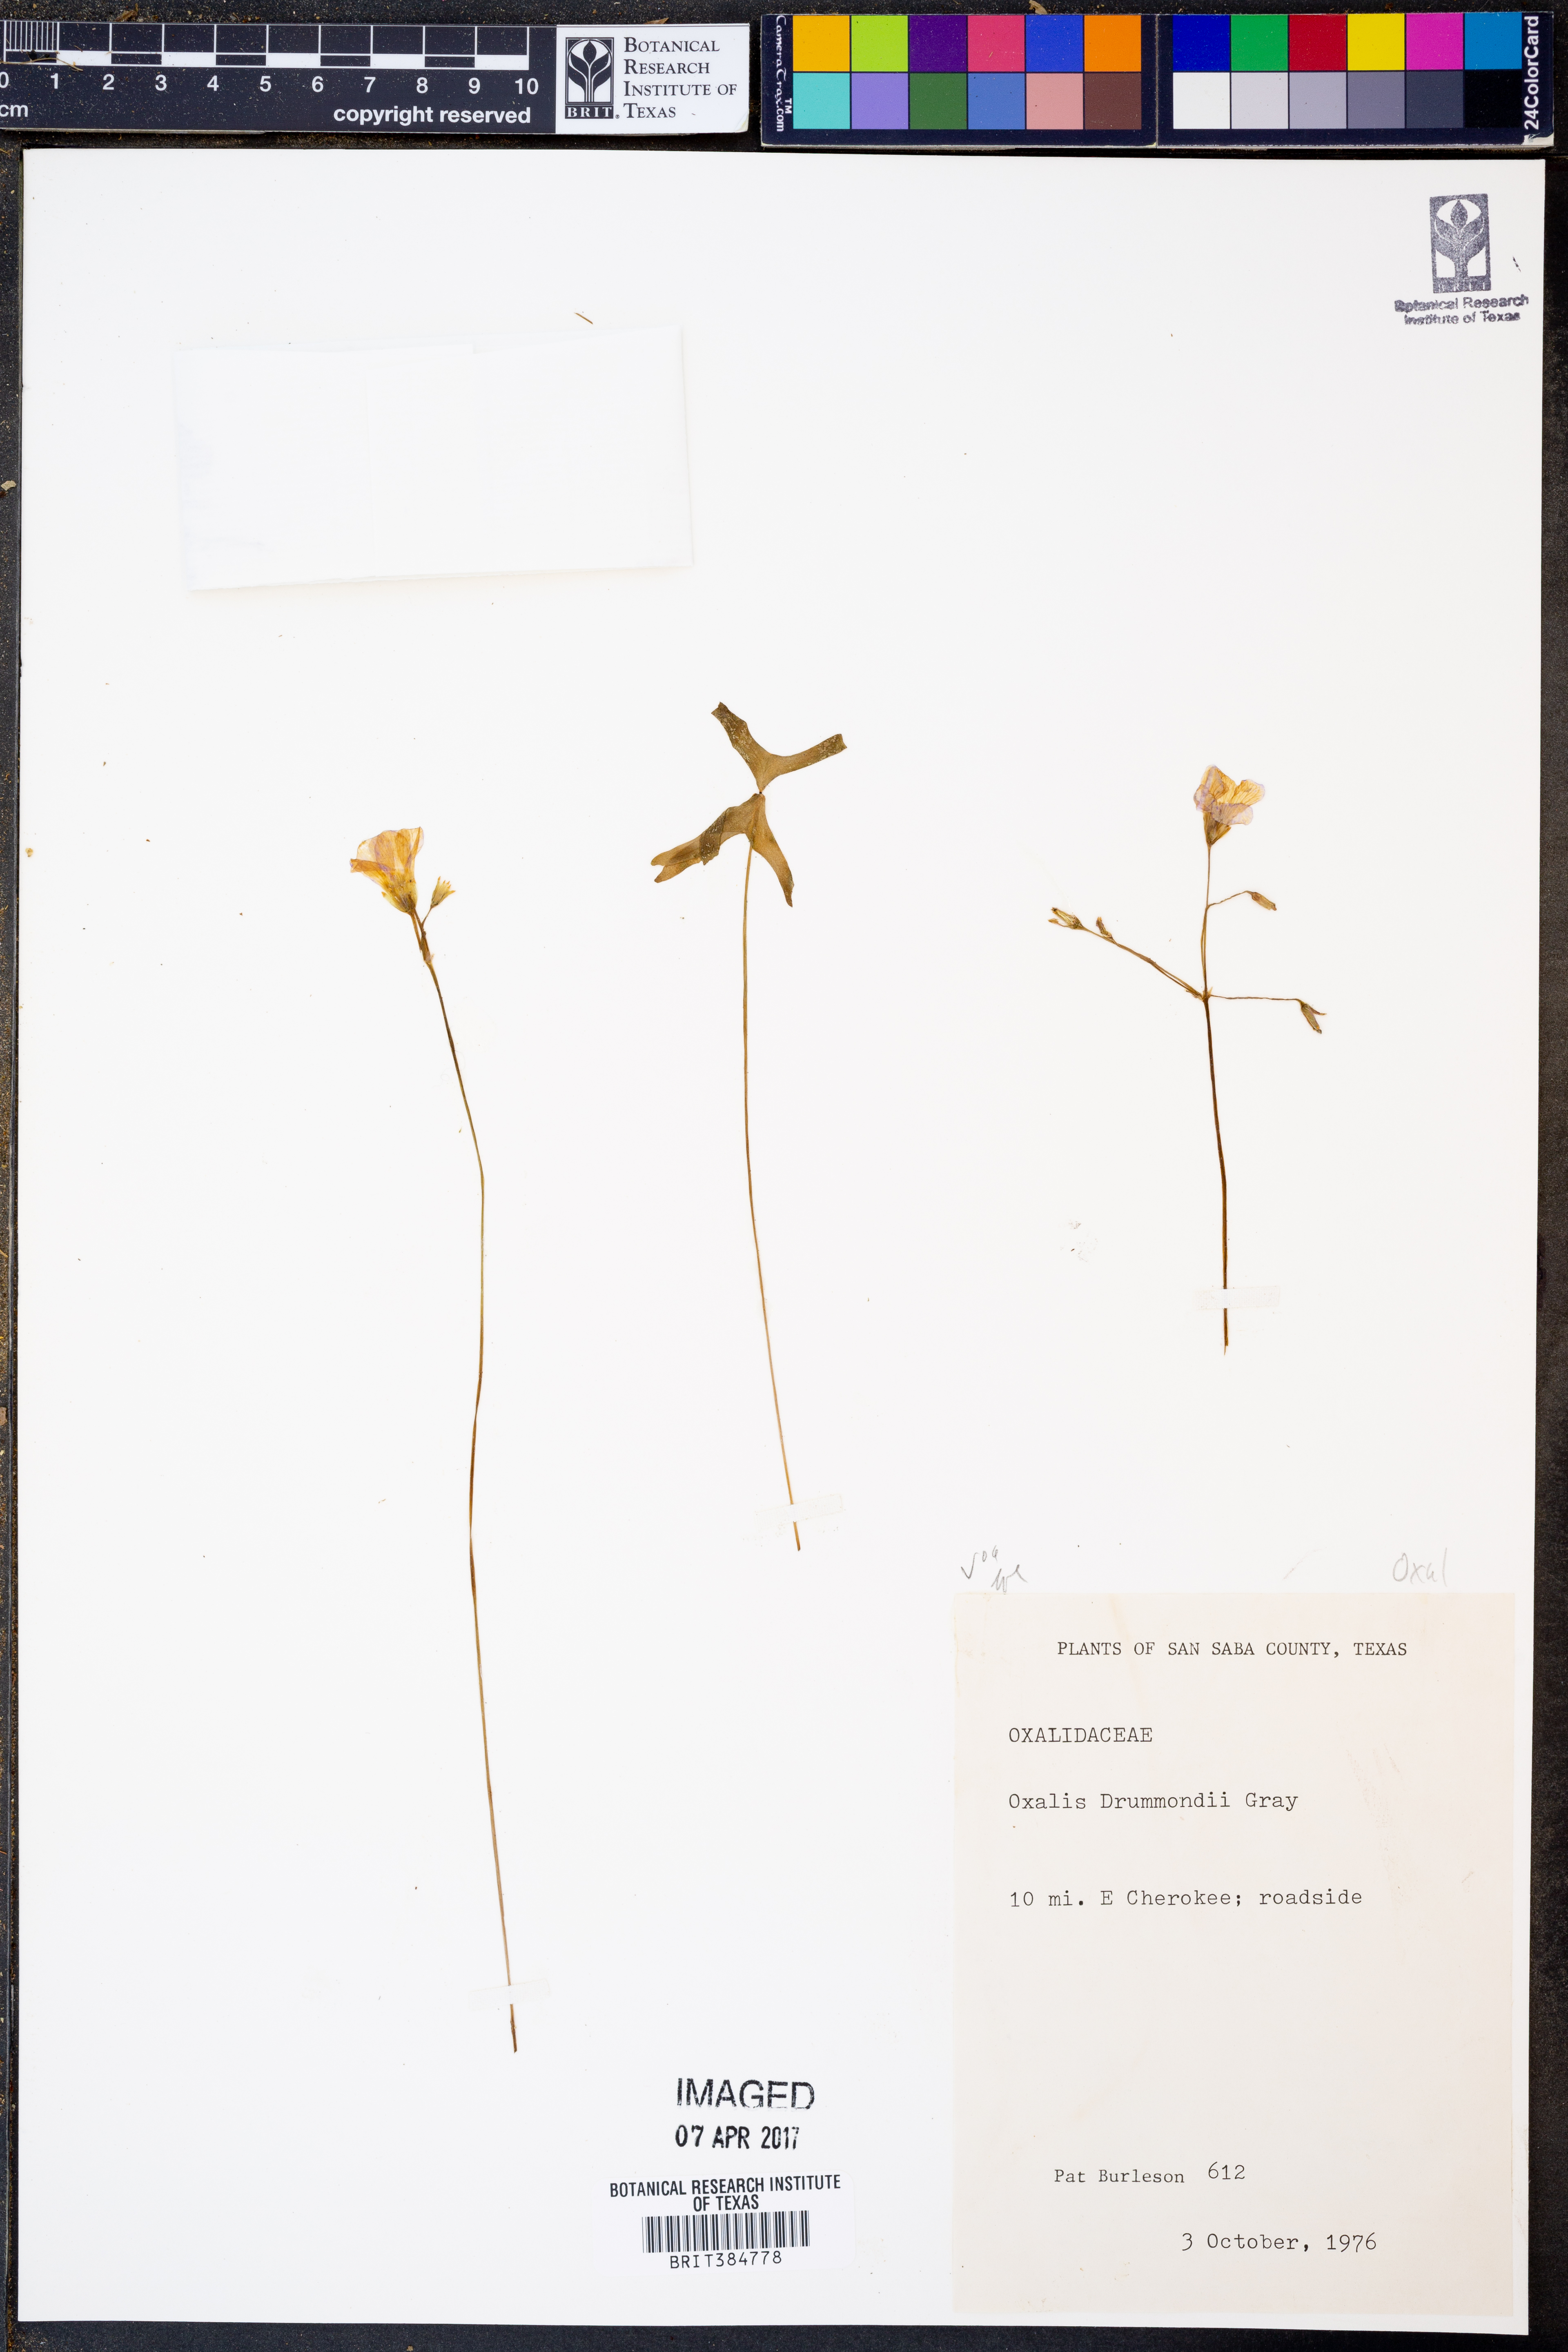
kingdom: Plantae
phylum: Tracheophyta
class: Magnoliopsida
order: Oxalidales
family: Oxalidaceae
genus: Oxalis
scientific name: Oxalis drummondii
